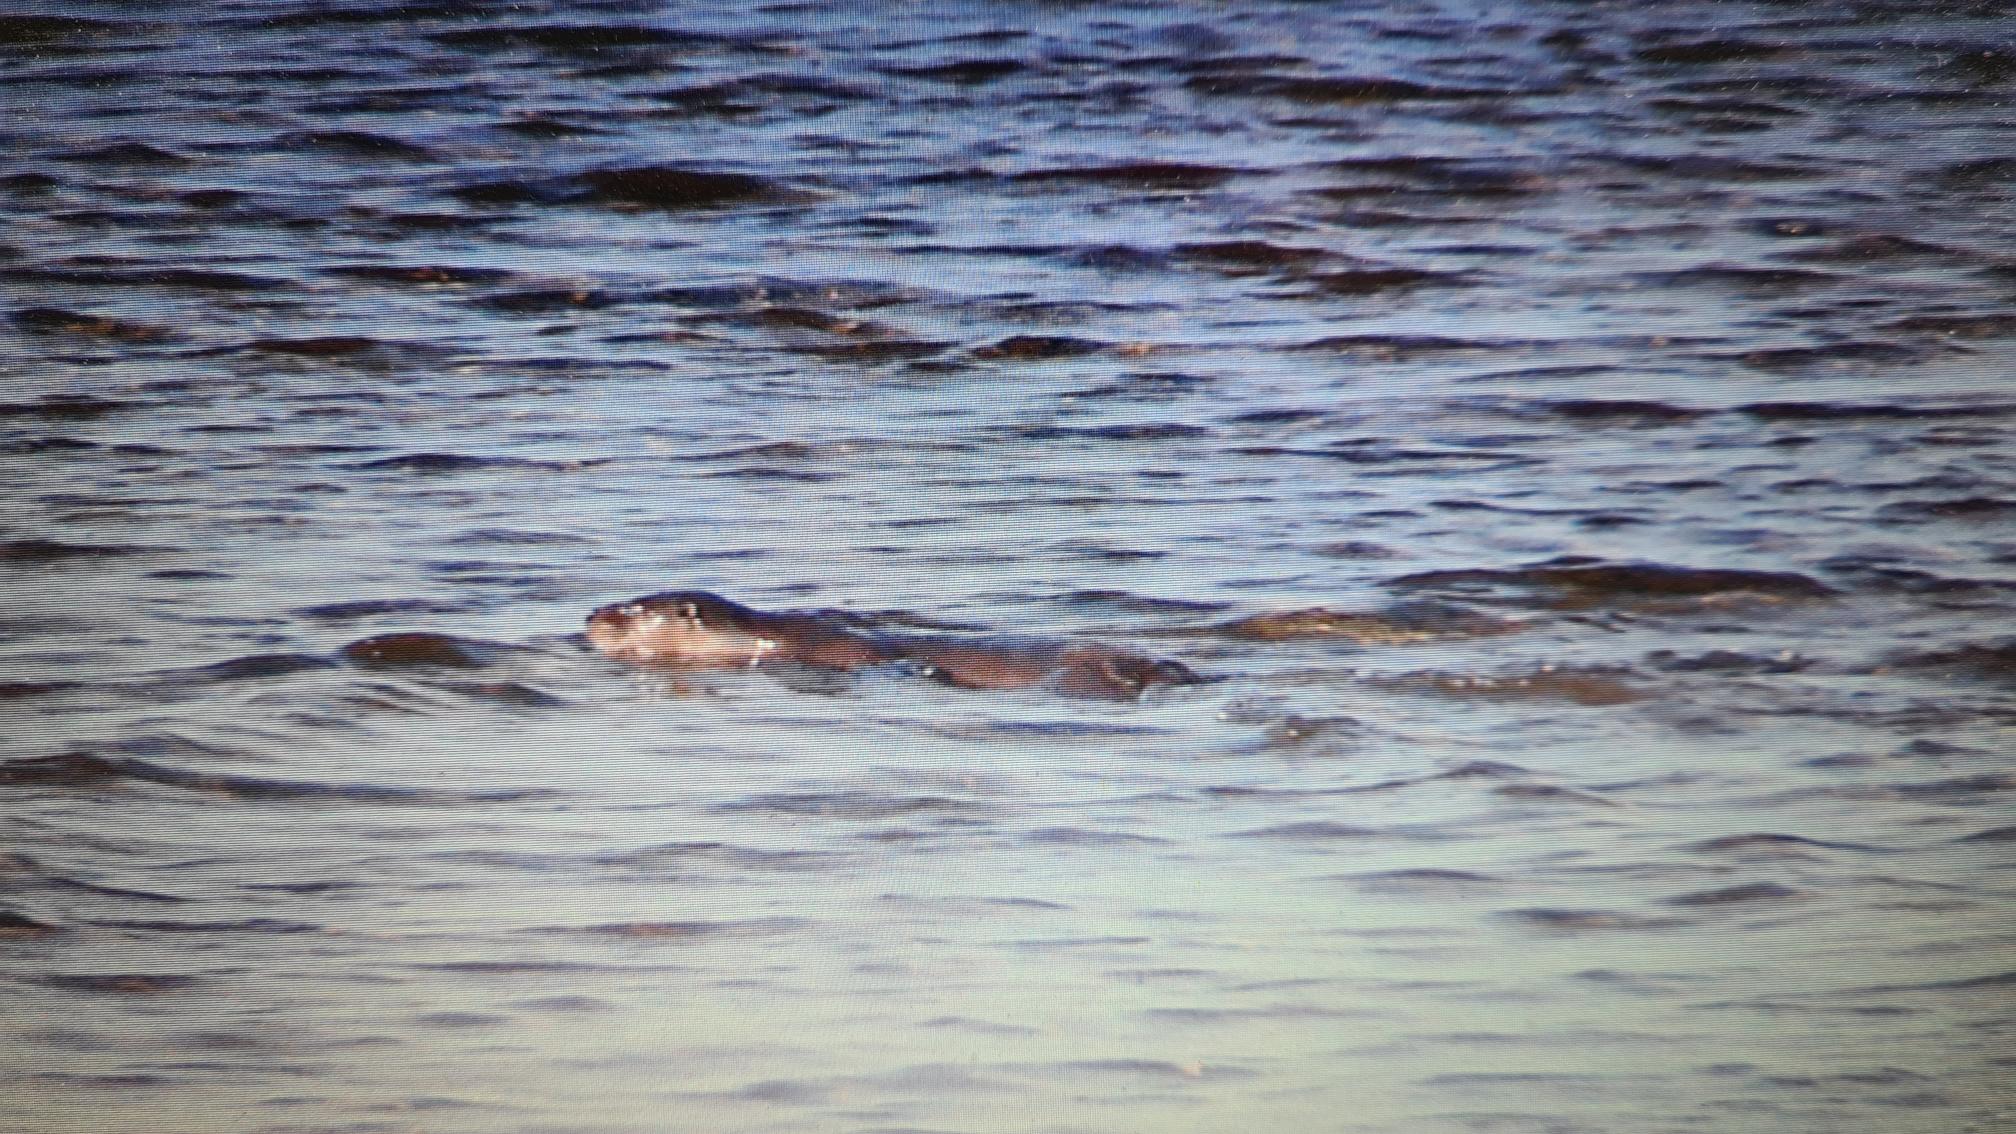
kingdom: Animalia
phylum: Chordata
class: Mammalia
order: Carnivora
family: Mustelidae
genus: Lutra
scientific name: Lutra lutra
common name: Odder
